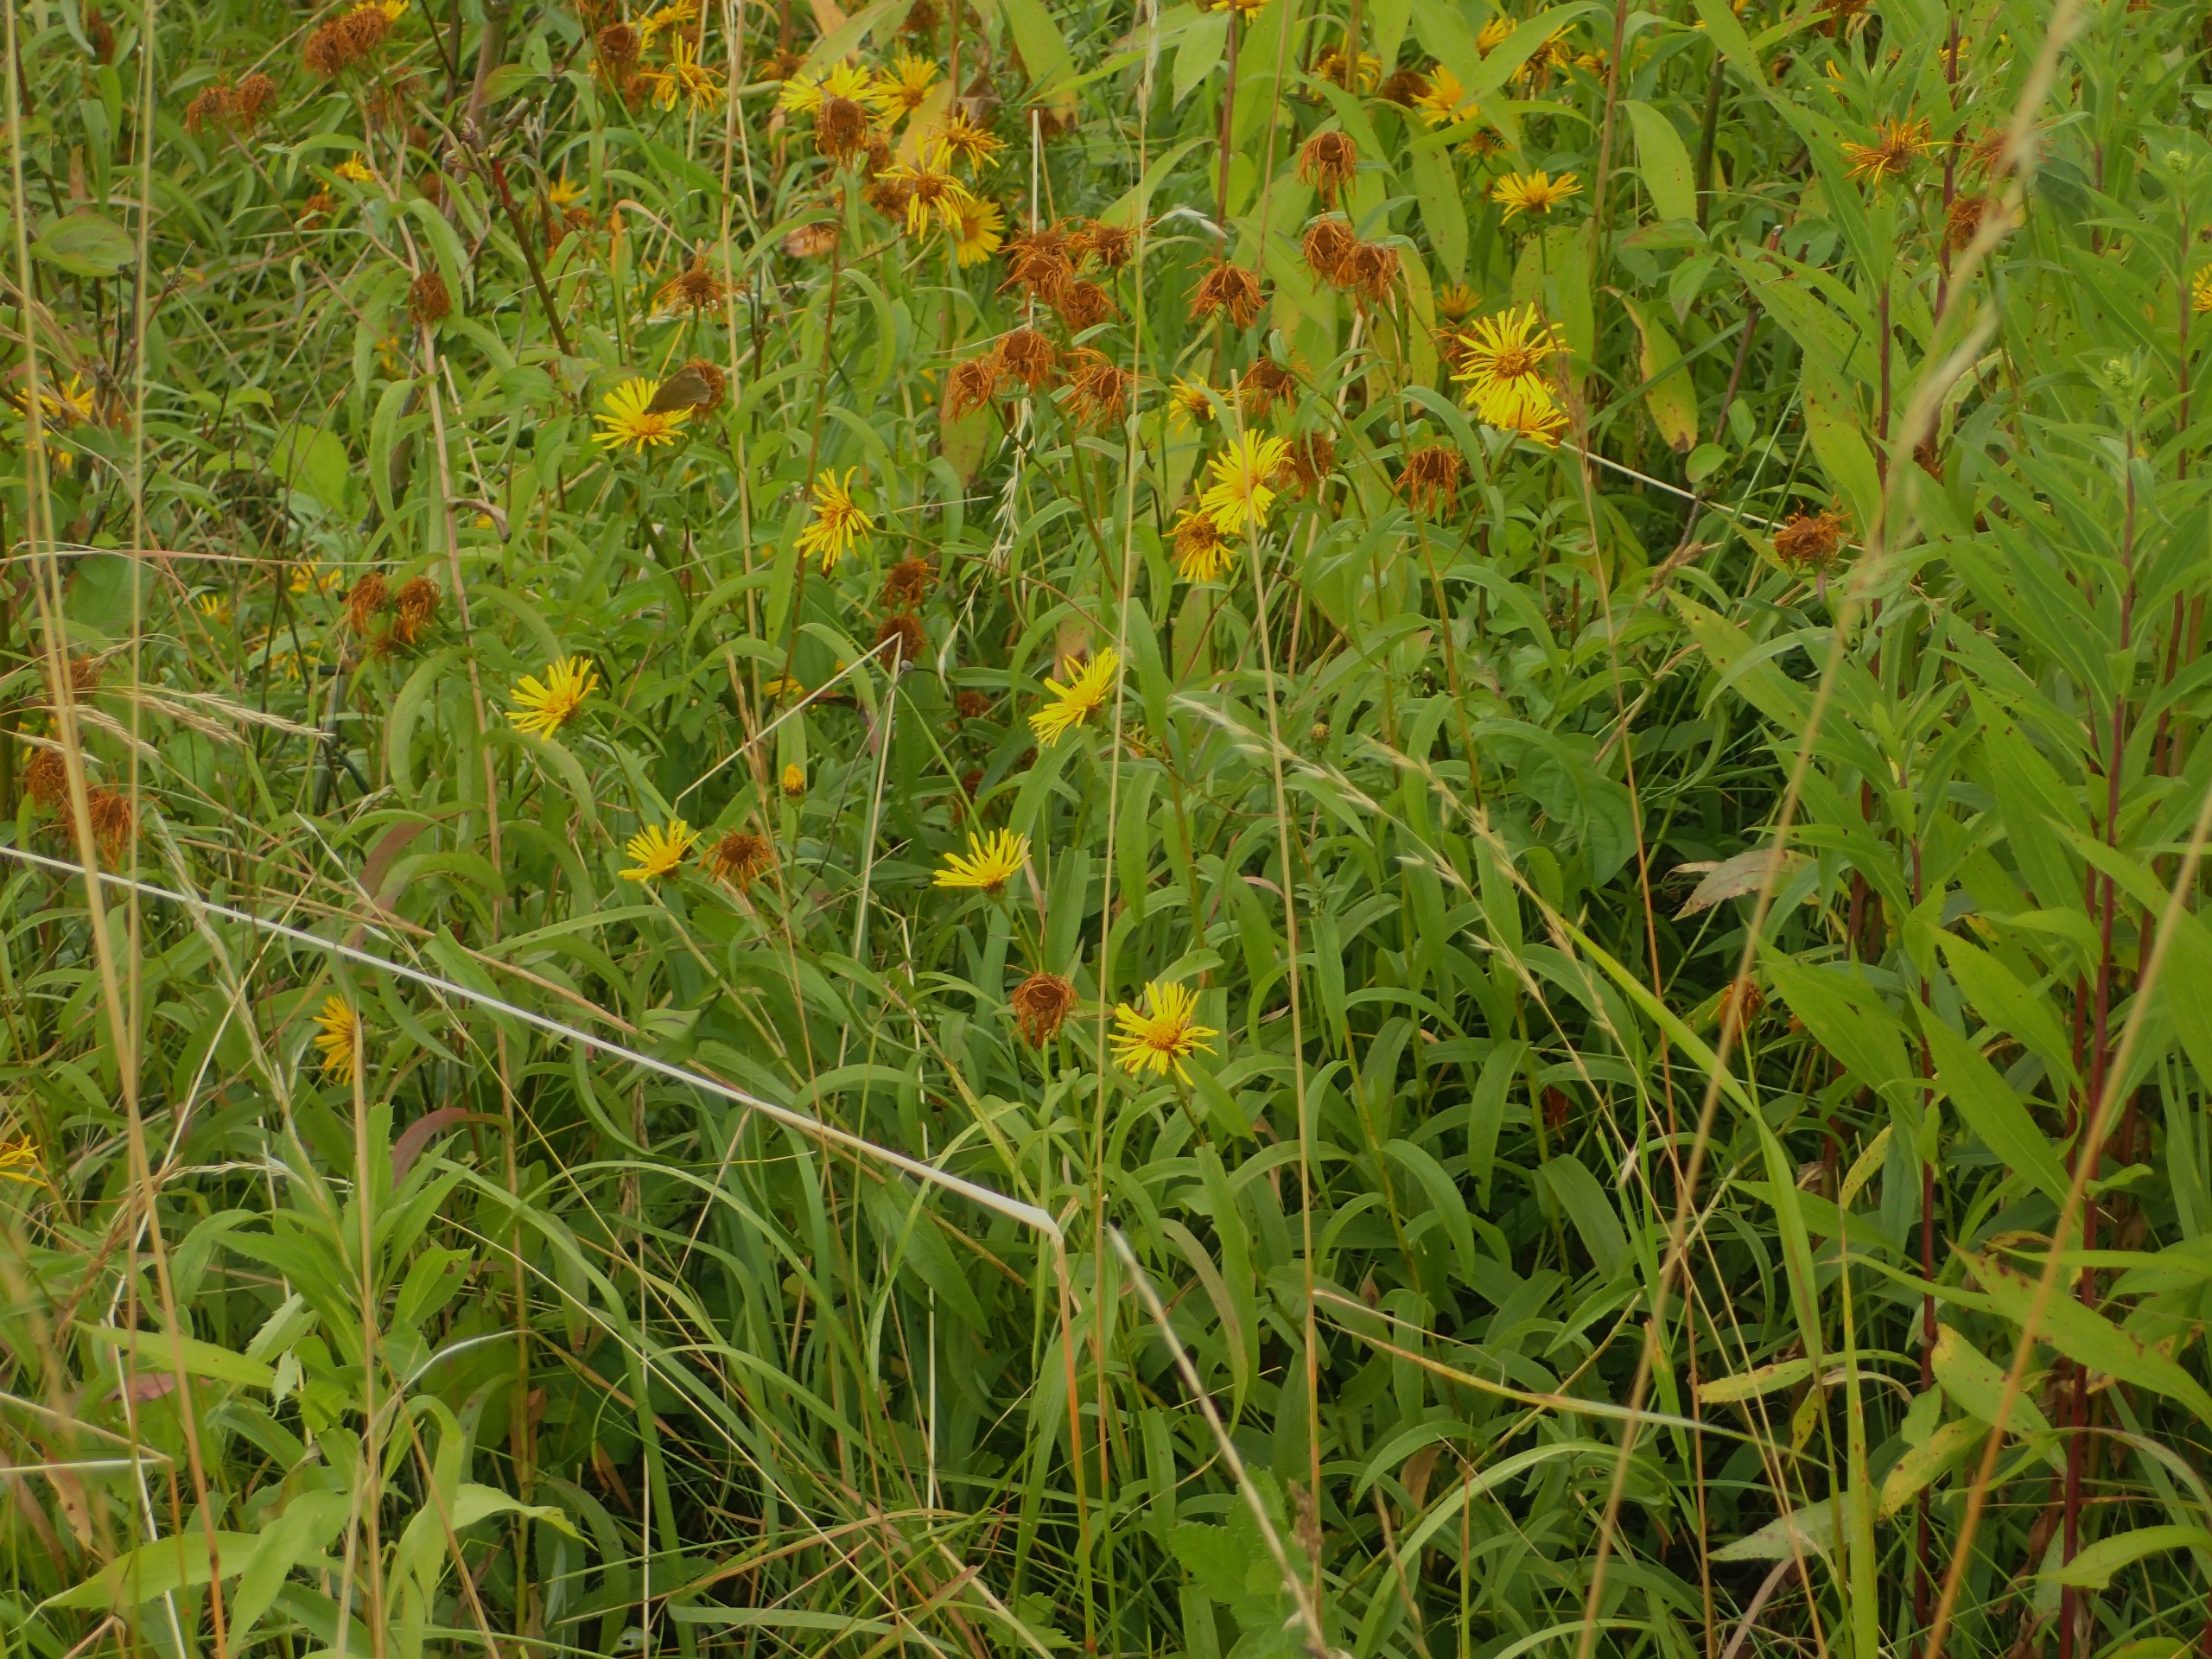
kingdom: Plantae
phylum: Tracheophyta
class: Magnoliopsida
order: Asterales
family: Asteraceae
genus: Pentanema
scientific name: Pentanema salicinum
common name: Pile-alant
